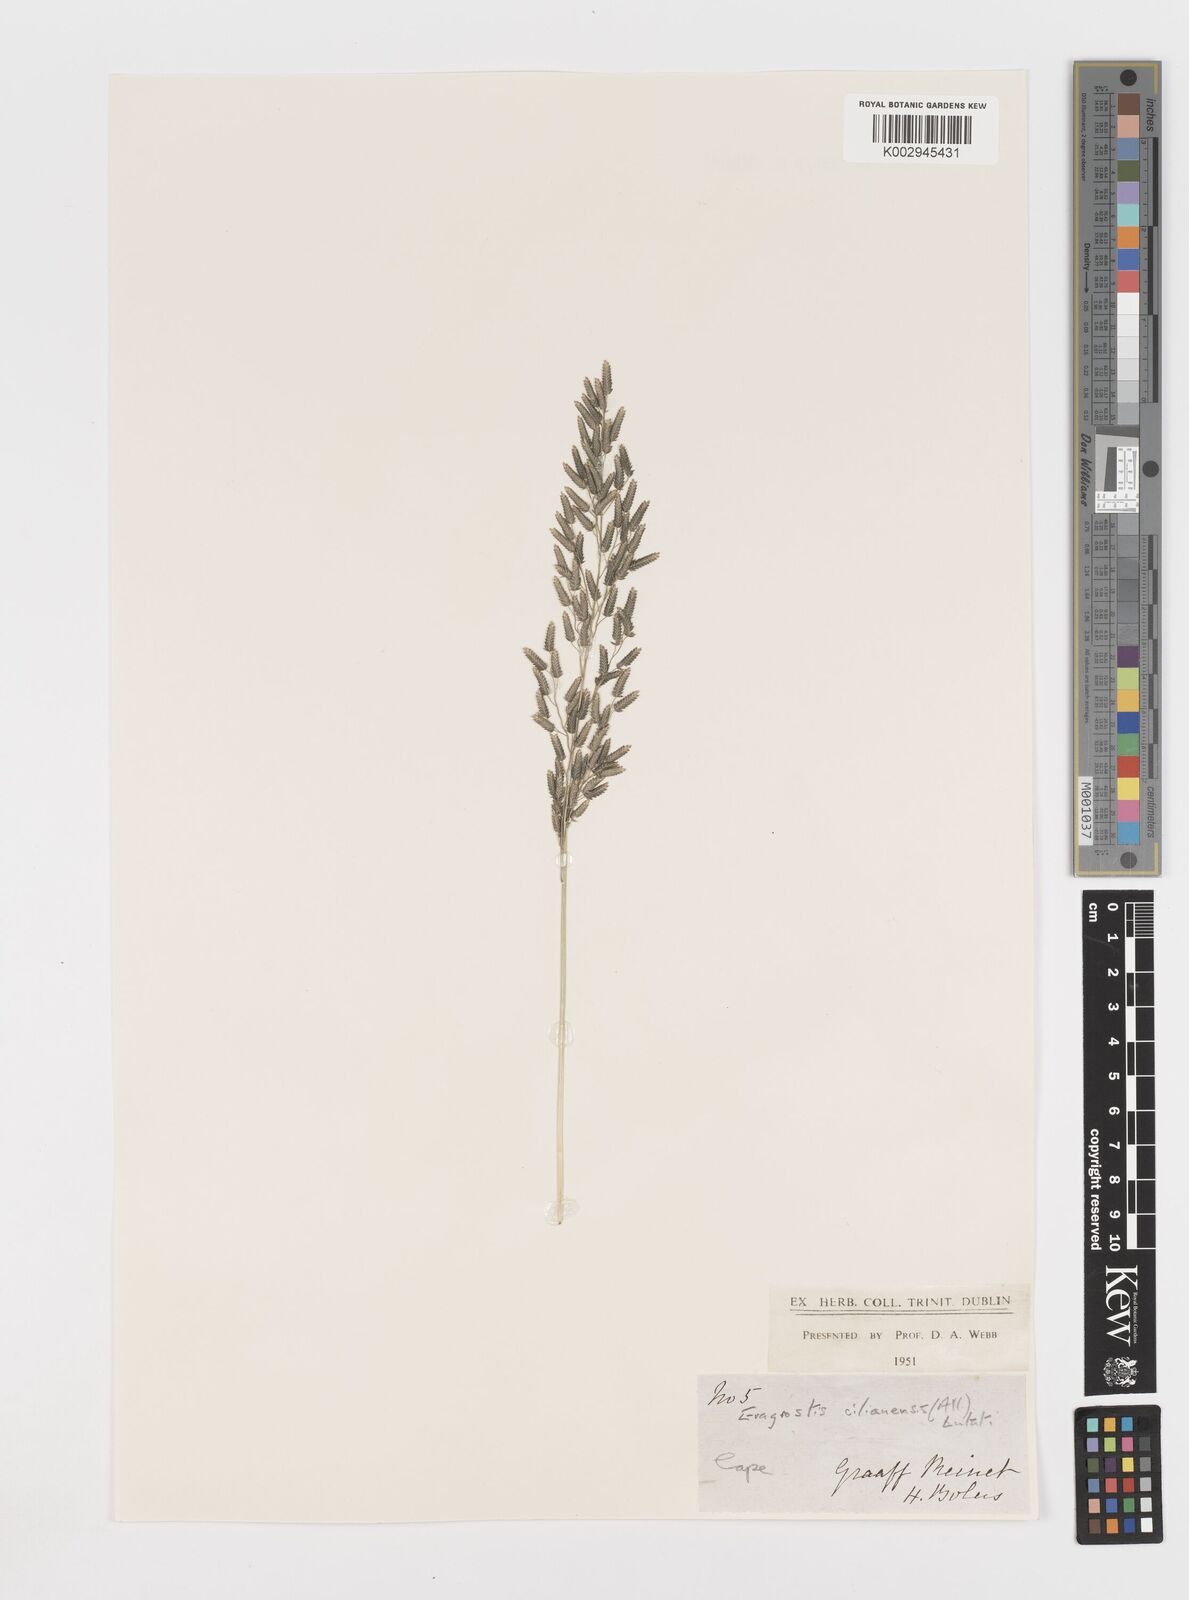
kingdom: Plantae
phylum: Tracheophyta
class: Liliopsida
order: Poales
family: Poaceae
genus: Eragrostis
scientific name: Eragrostis cilianensis
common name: Stinkgrass
